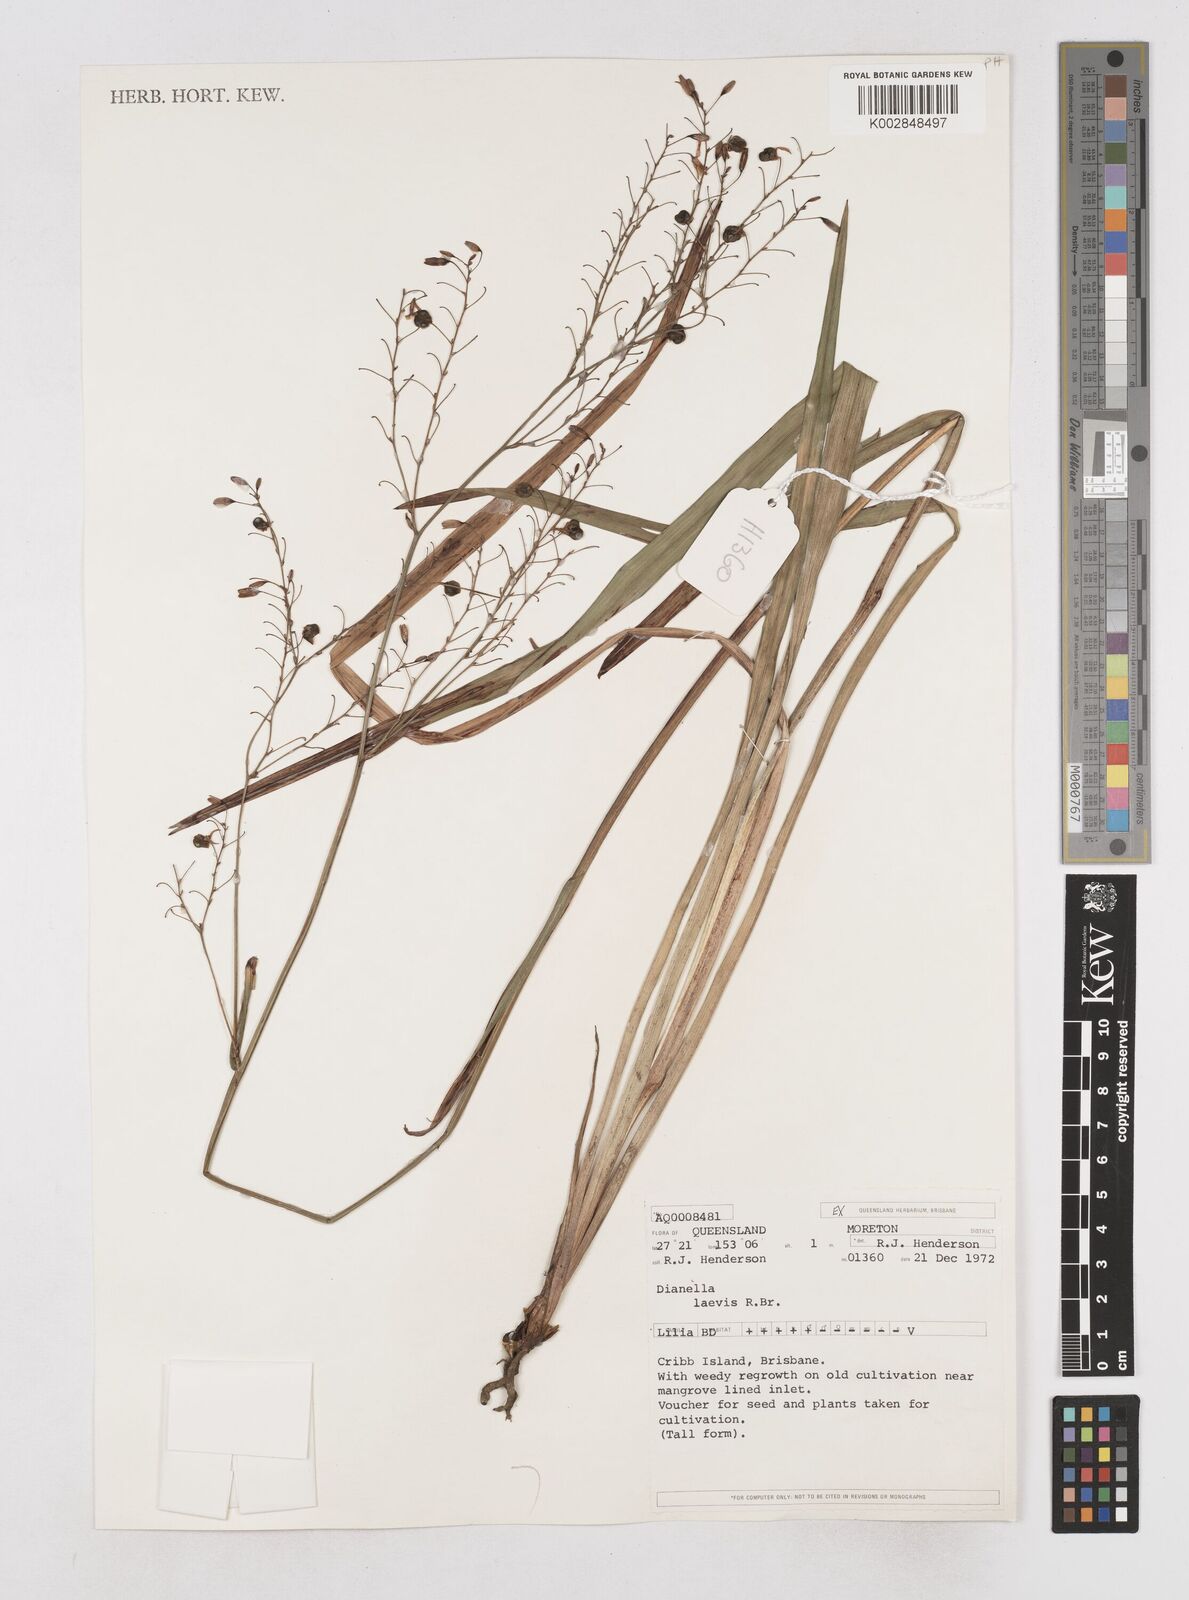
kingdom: Plantae
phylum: Tracheophyta
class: Liliopsida
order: Asparagales
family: Asphodelaceae
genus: Dianella
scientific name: Dianella longifolia
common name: Blue flax-lily
